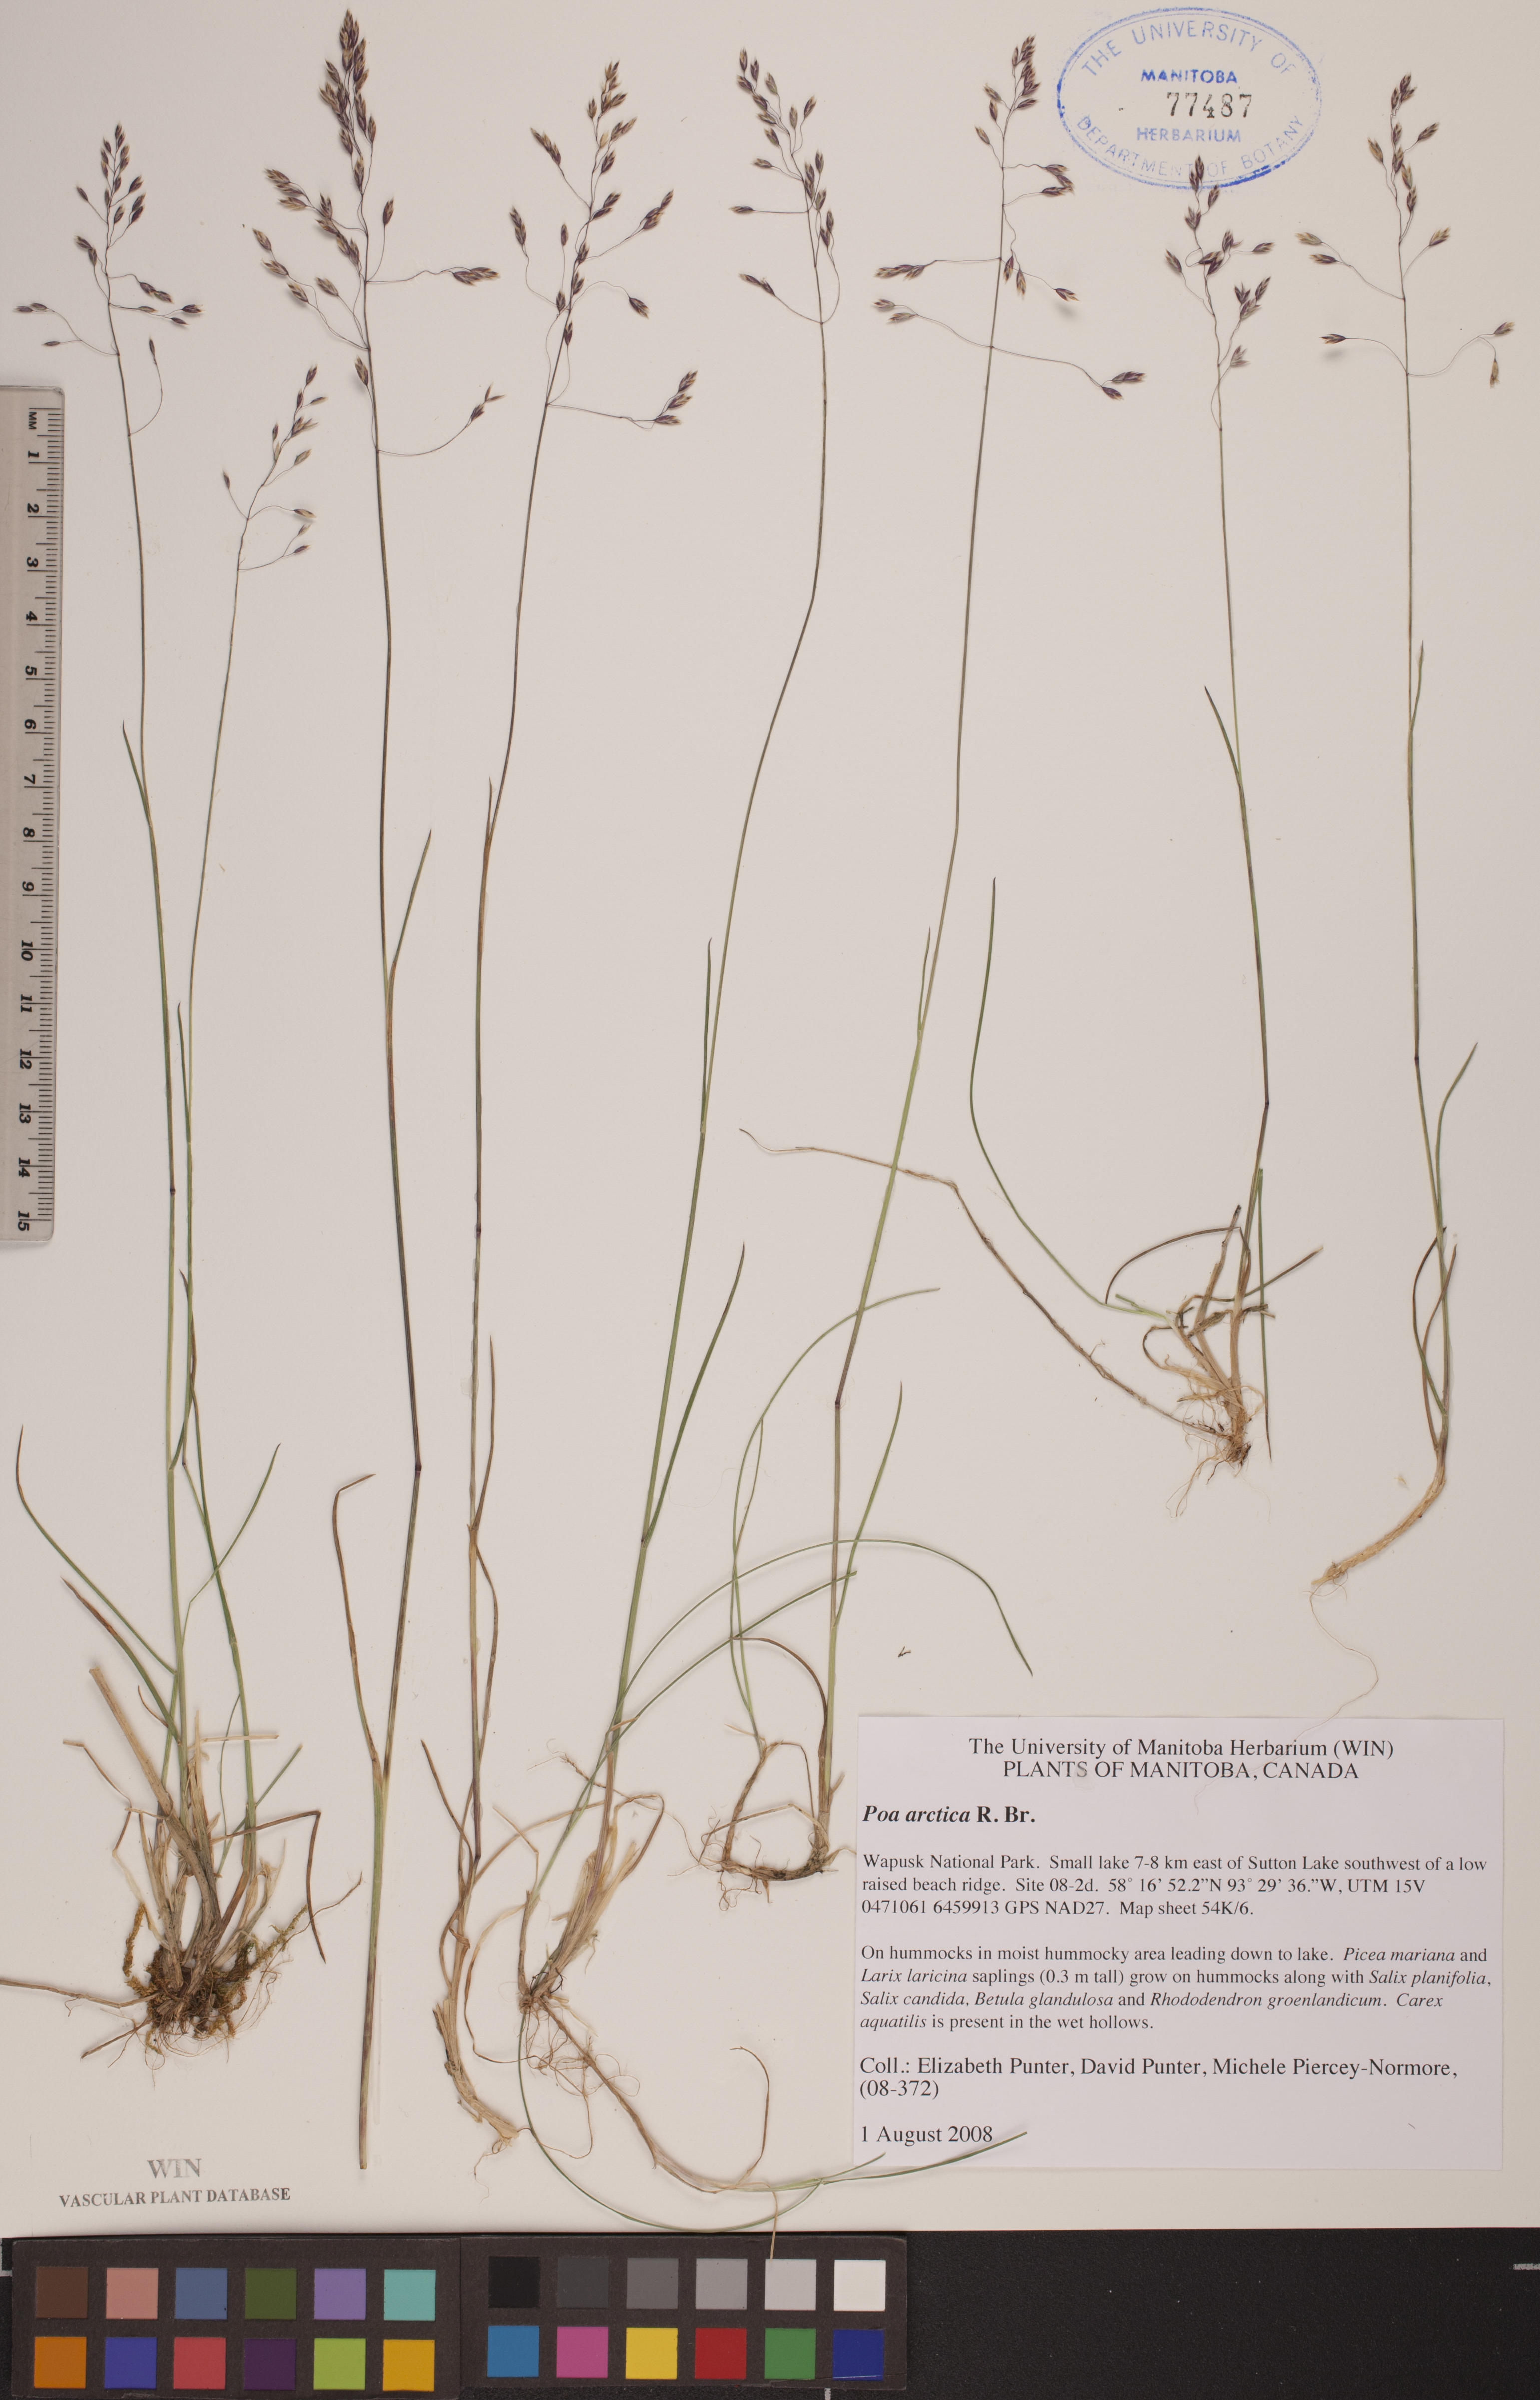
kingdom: Plantae
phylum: Tracheophyta
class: Liliopsida
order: Poales
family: Poaceae
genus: Poa
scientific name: Poa arctica
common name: Arctic bluegrass
